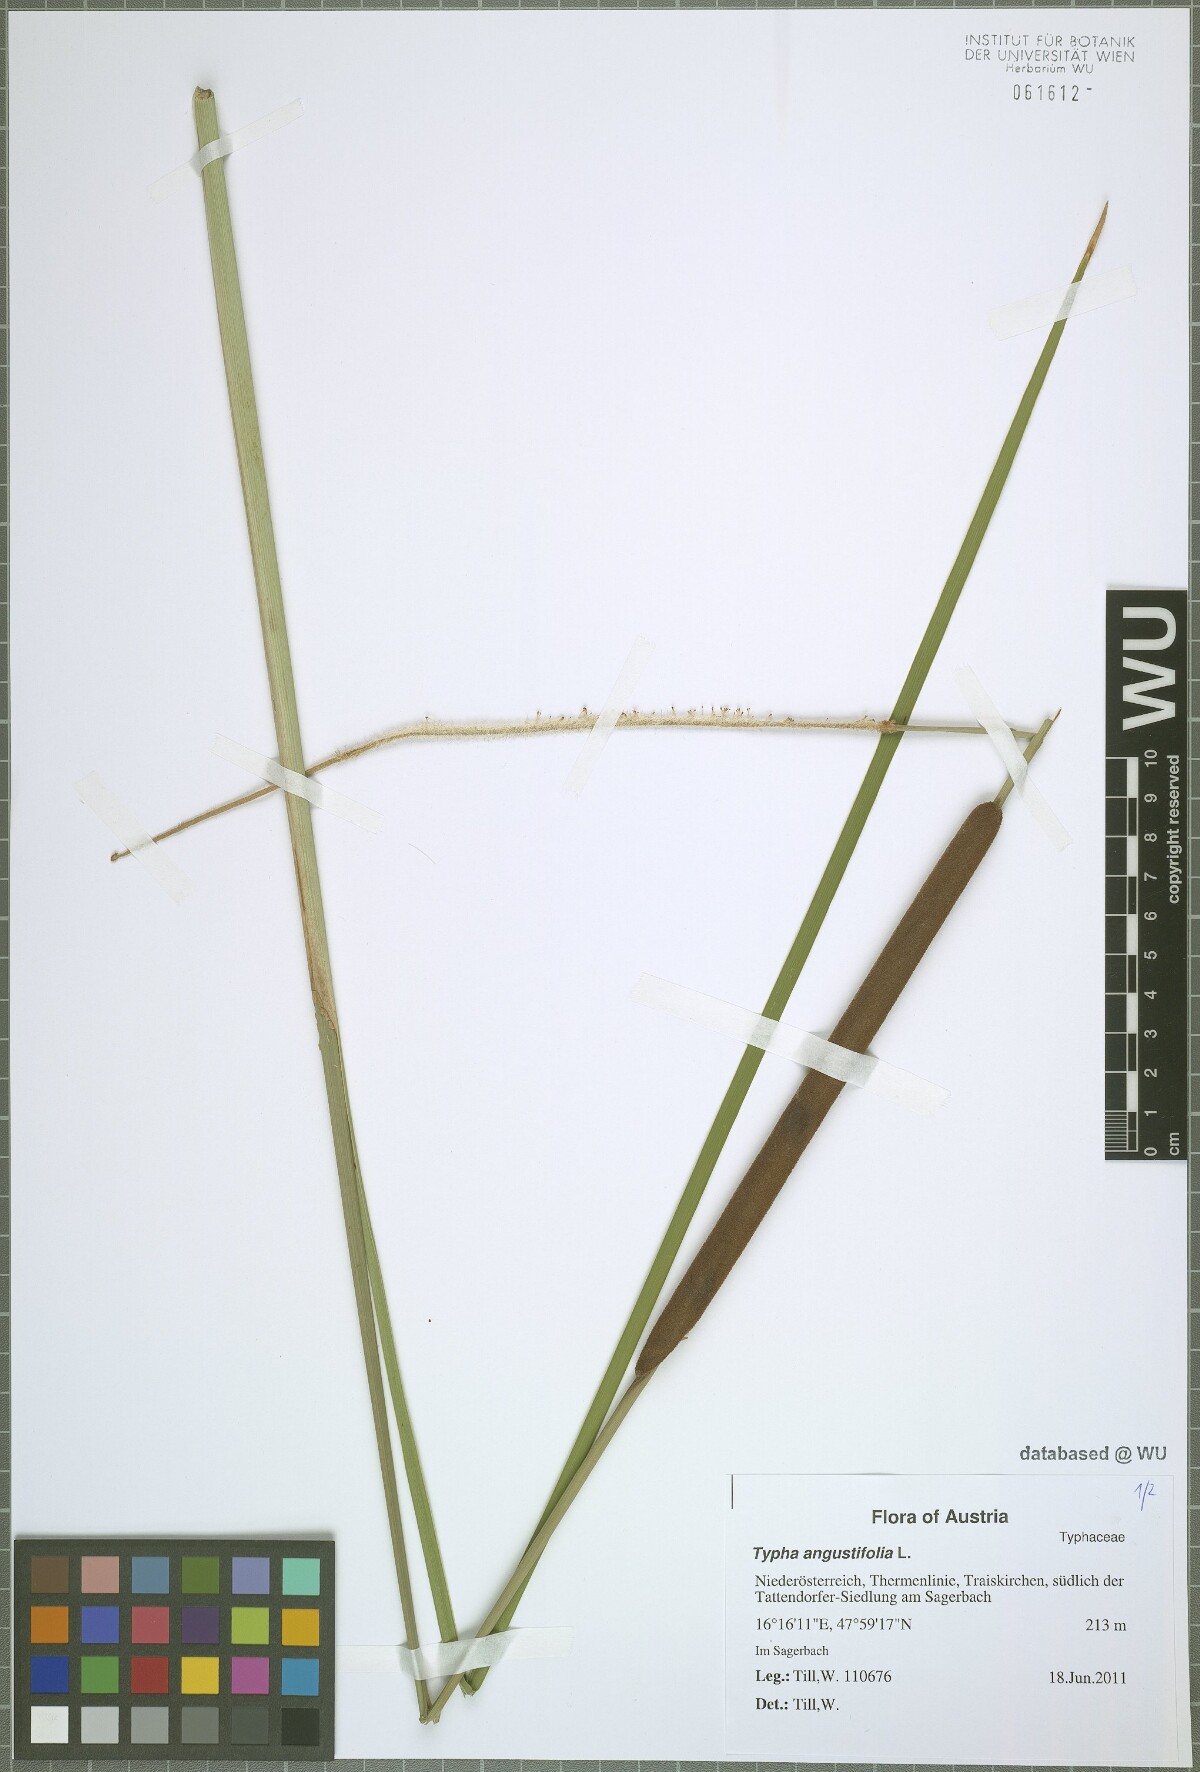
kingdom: Plantae
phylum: Tracheophyta
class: Liliopsida
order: Poales
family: Typhaceae
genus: Typha
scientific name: Typha angustifolia
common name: Lesser bulrush
